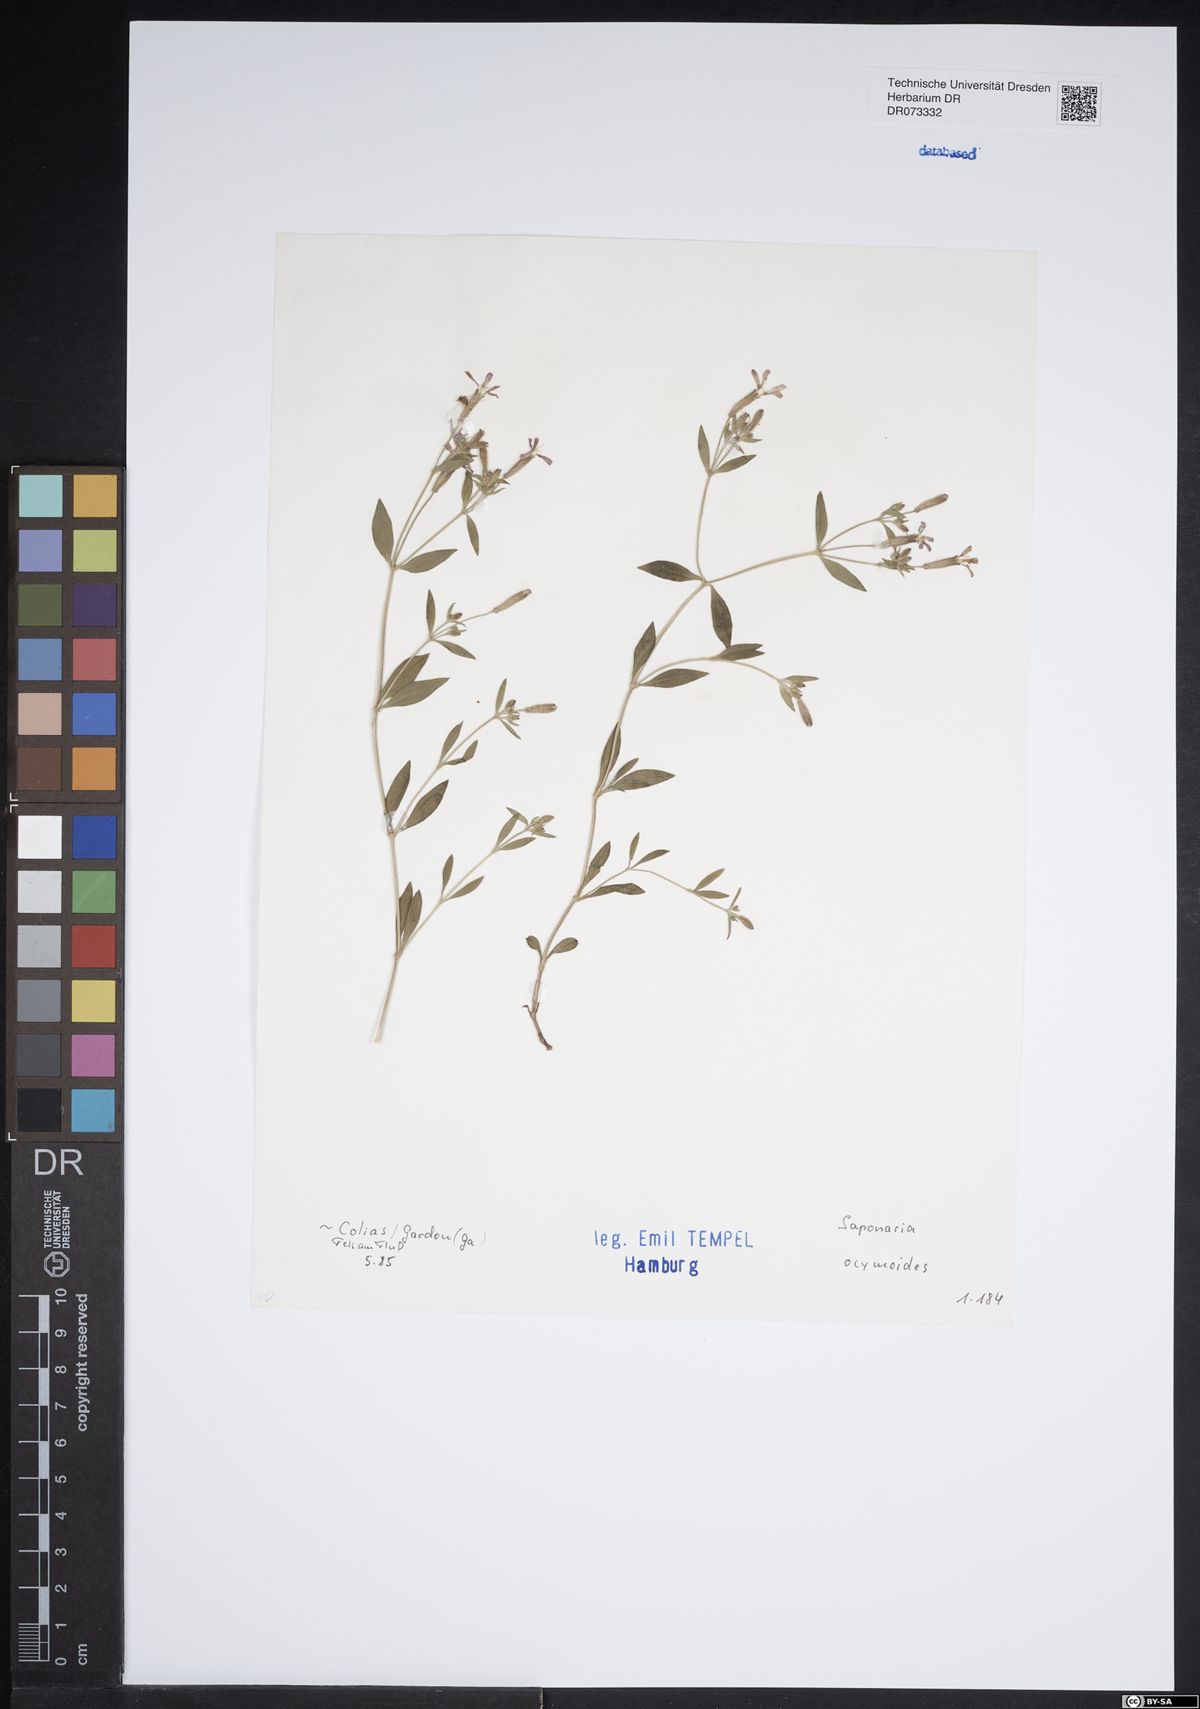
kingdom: Plantae
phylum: Tracheophyta
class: Magnoliopsida
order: Caryophyllales
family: Caryophyllaceae
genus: Saponaria
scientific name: Saponaria ocymoides
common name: Rock soapwort
